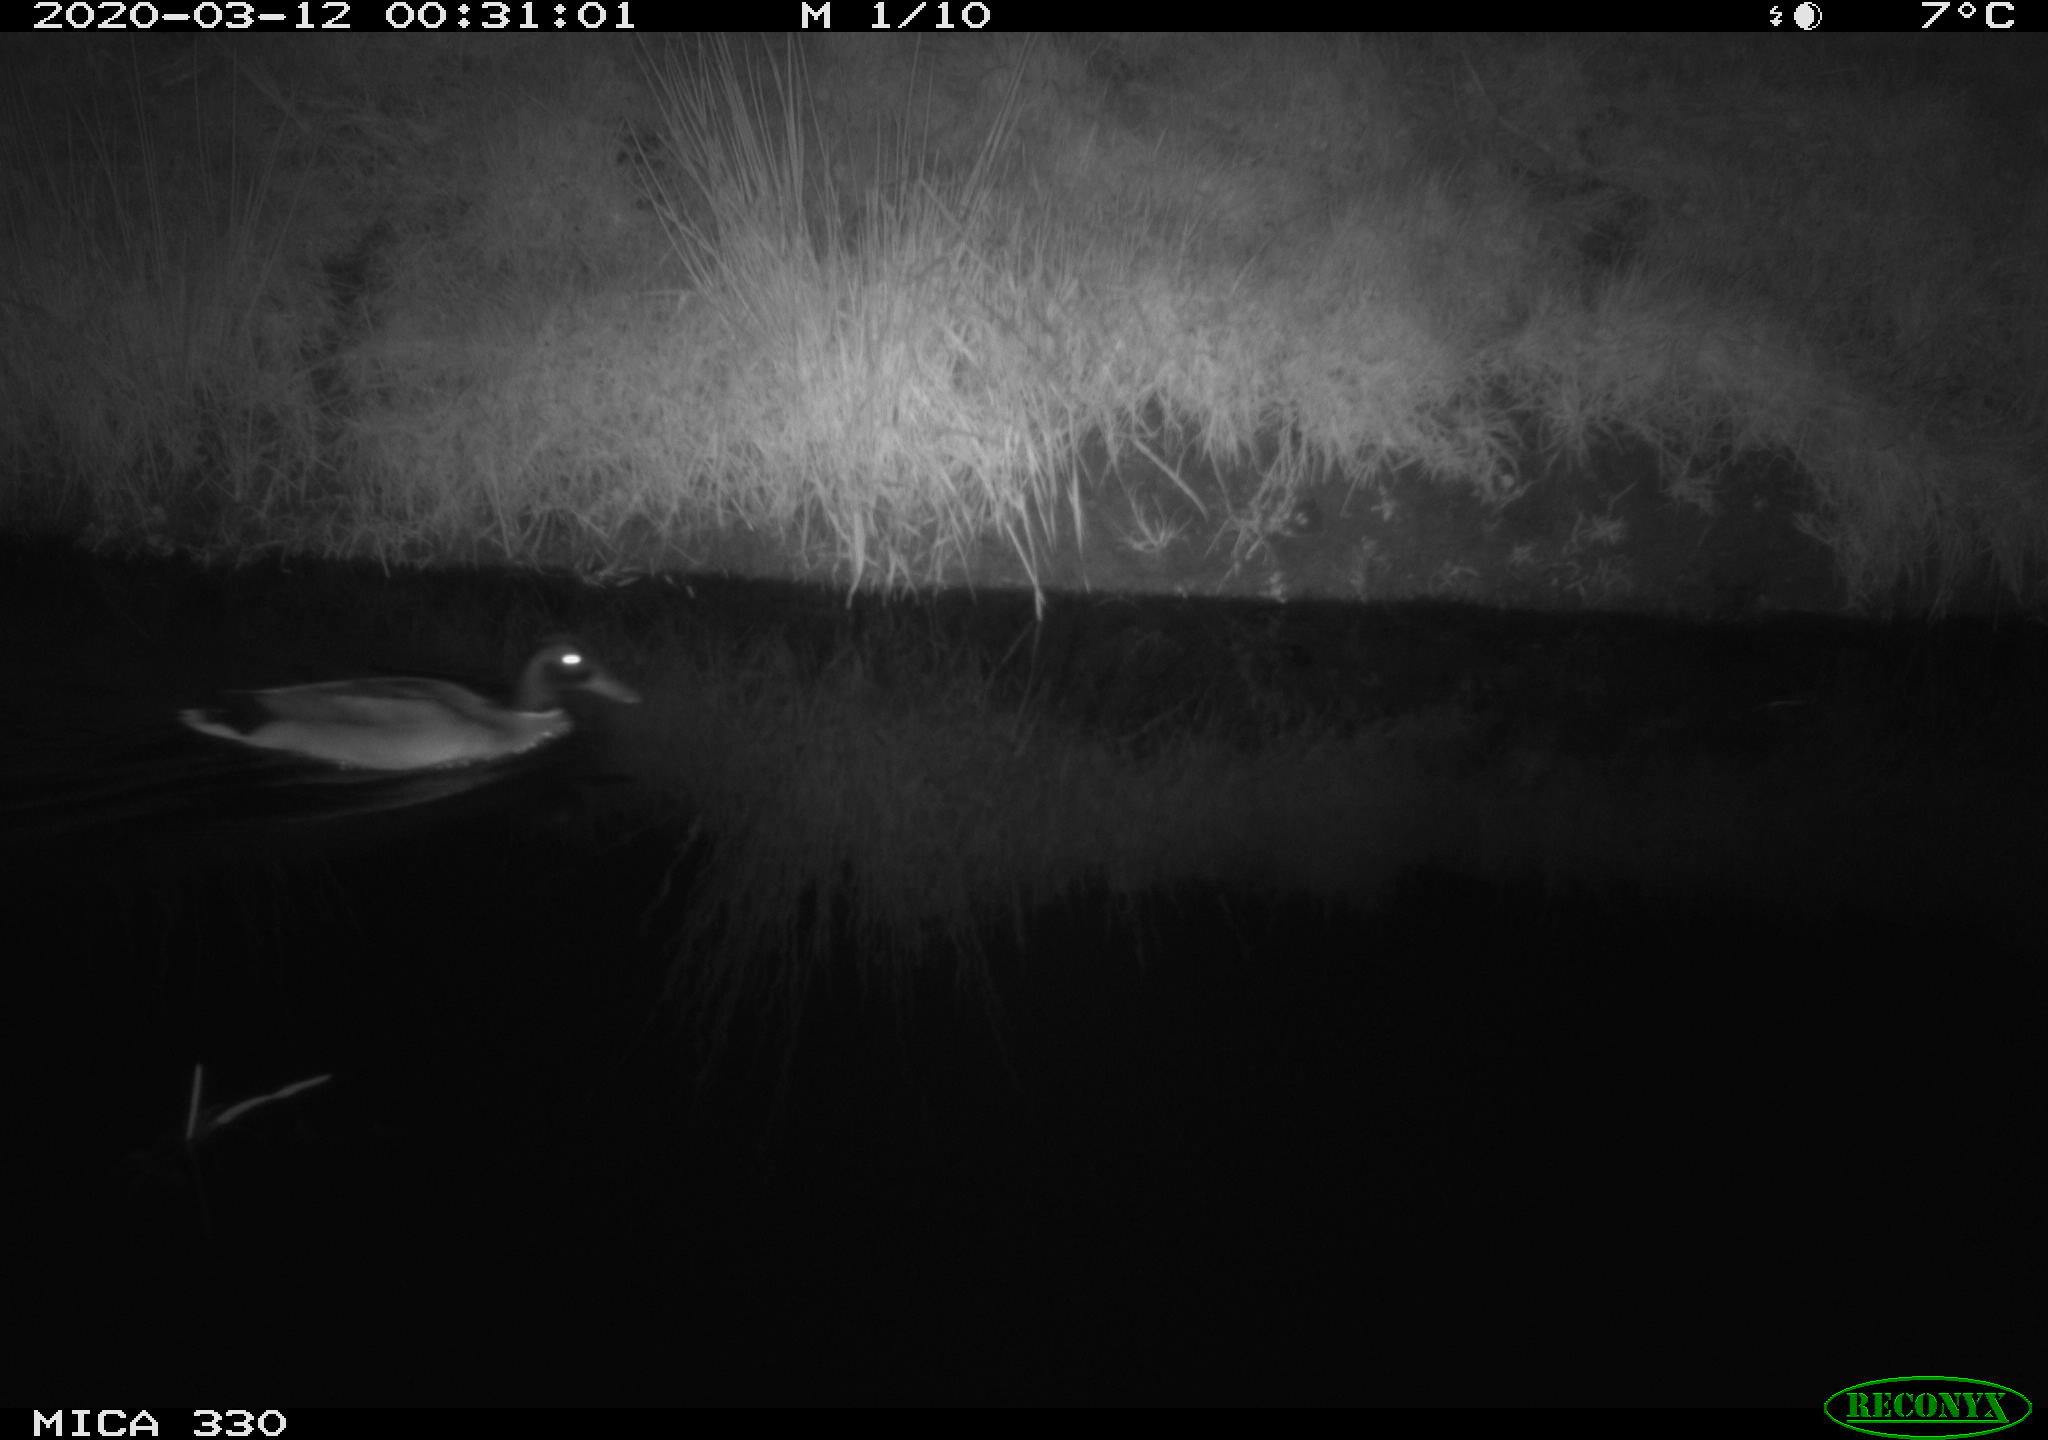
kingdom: Animalia
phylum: Chordata
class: Aves
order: Anseriformes
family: Anatidae
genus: Anas
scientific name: Anas platyrhynchos
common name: Mallard
